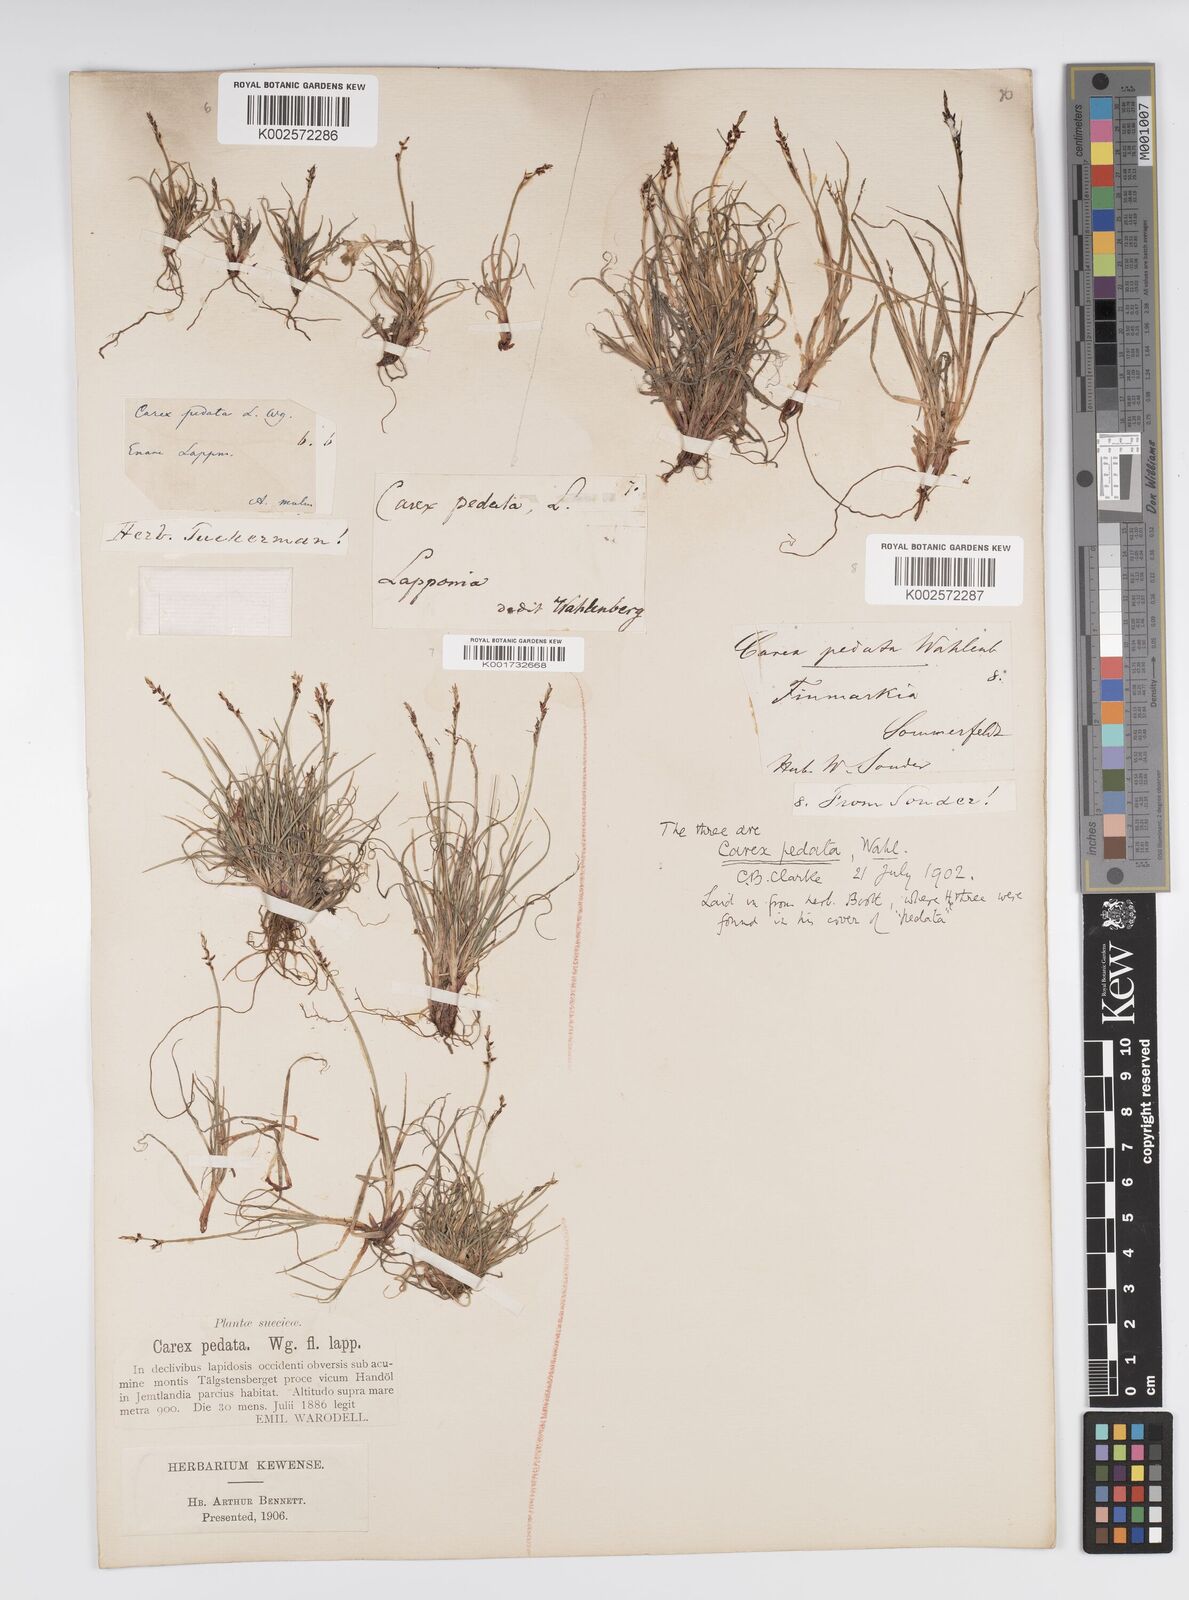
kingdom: Plantae
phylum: Tracheophyta
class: Liliopsida
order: Poales
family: Cyperaceae
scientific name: Cyperaceae
